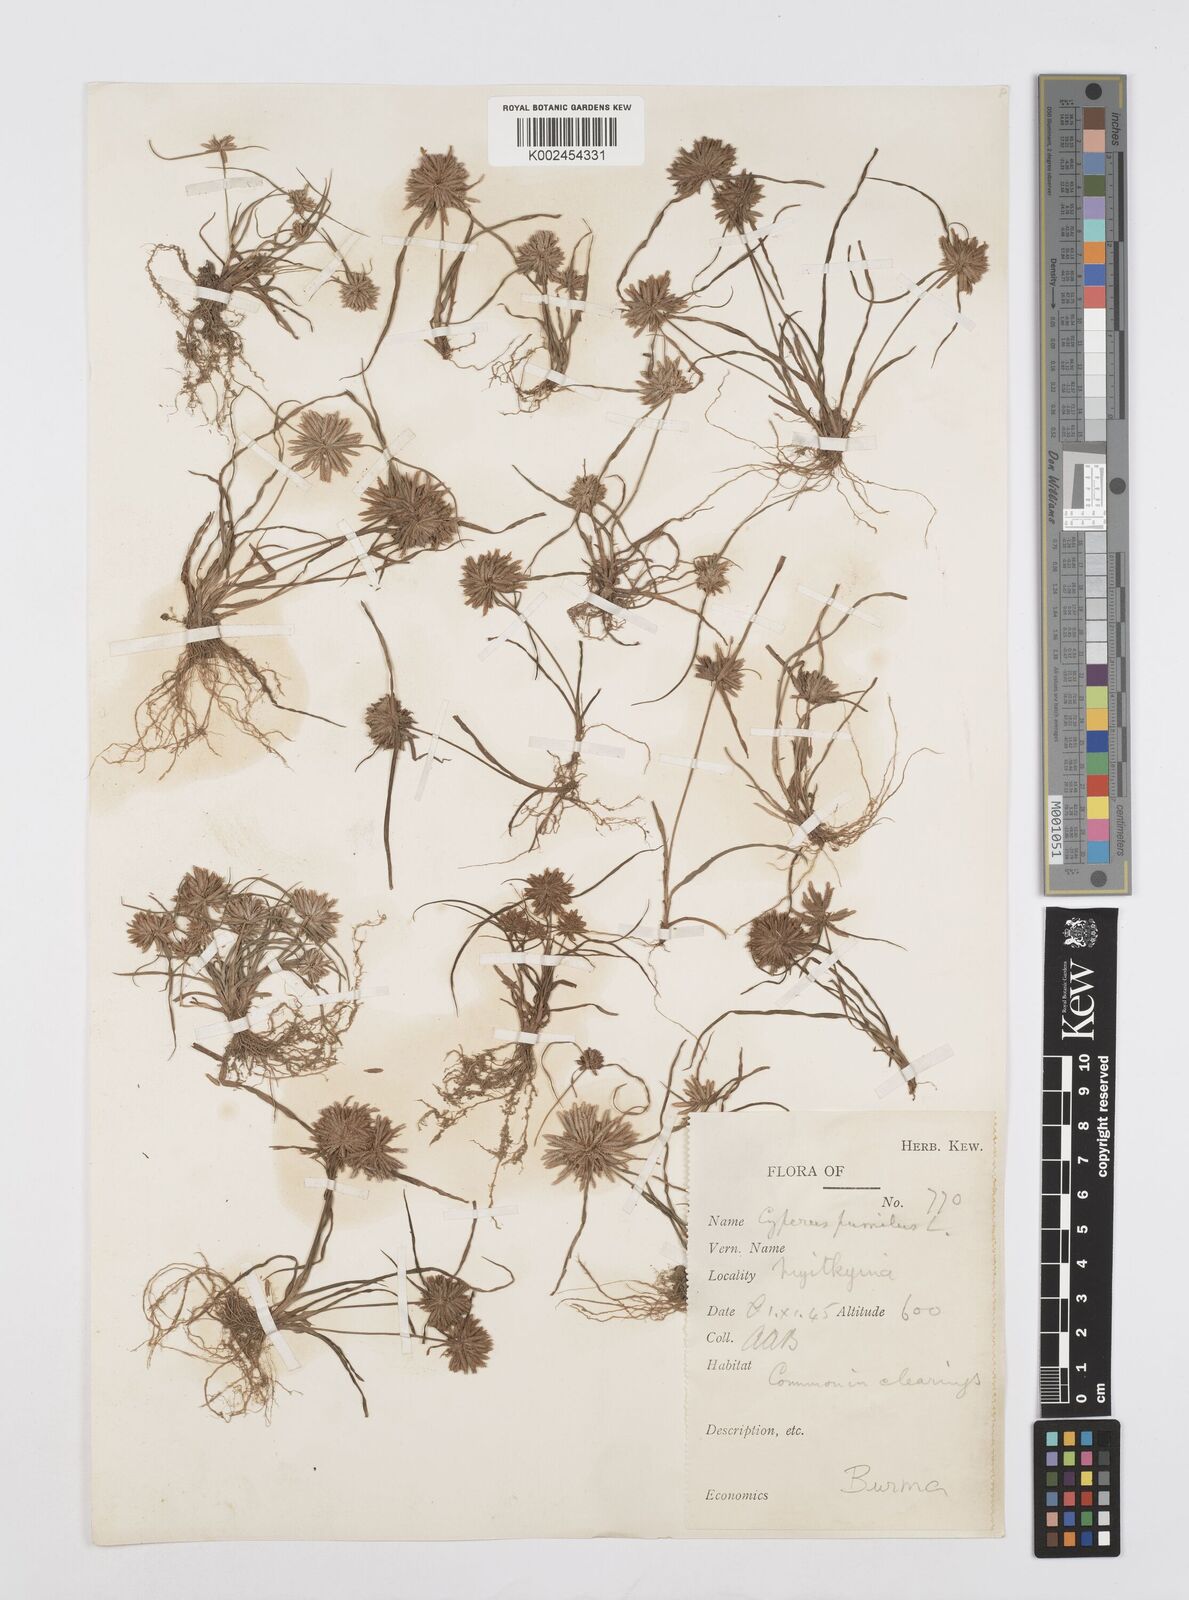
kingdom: Plantae
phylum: Tracheophyta
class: Liliopsida
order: Poales
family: Cyperaceae
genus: Cyperus
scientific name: Cyperus pumilus
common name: Low flatsedge
